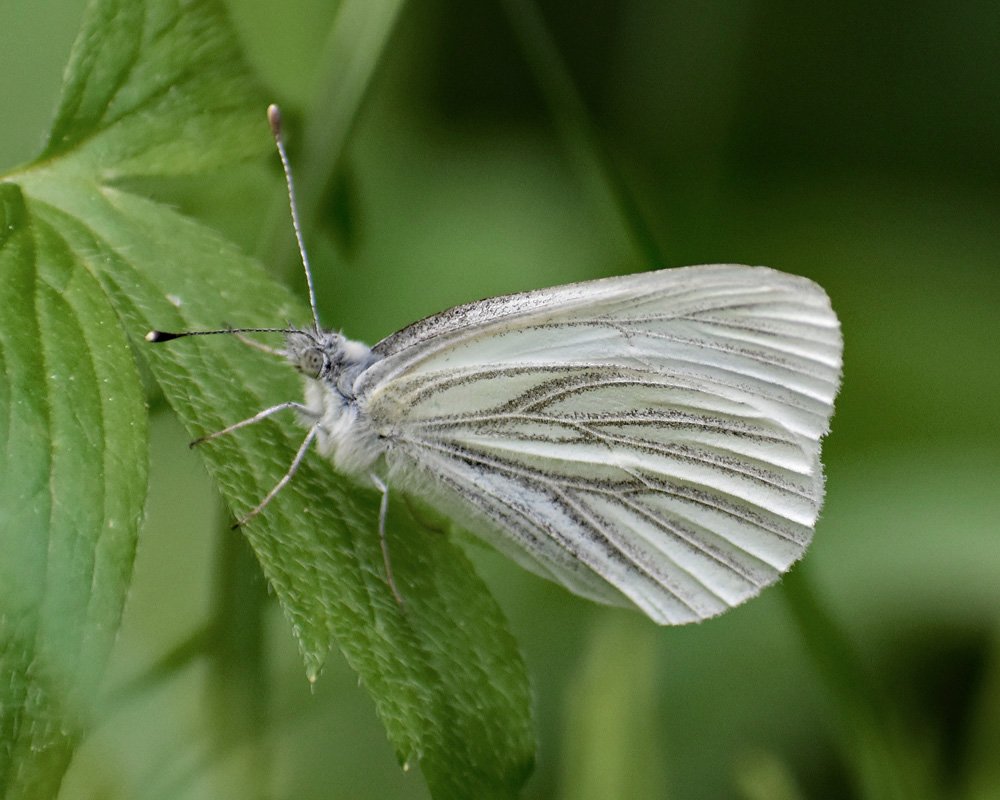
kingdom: Animalia
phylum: Arthropoda
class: Insecta
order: Lepidoptera
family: Pieridae
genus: Pieris
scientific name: Pieris marginalis
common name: Margined White
